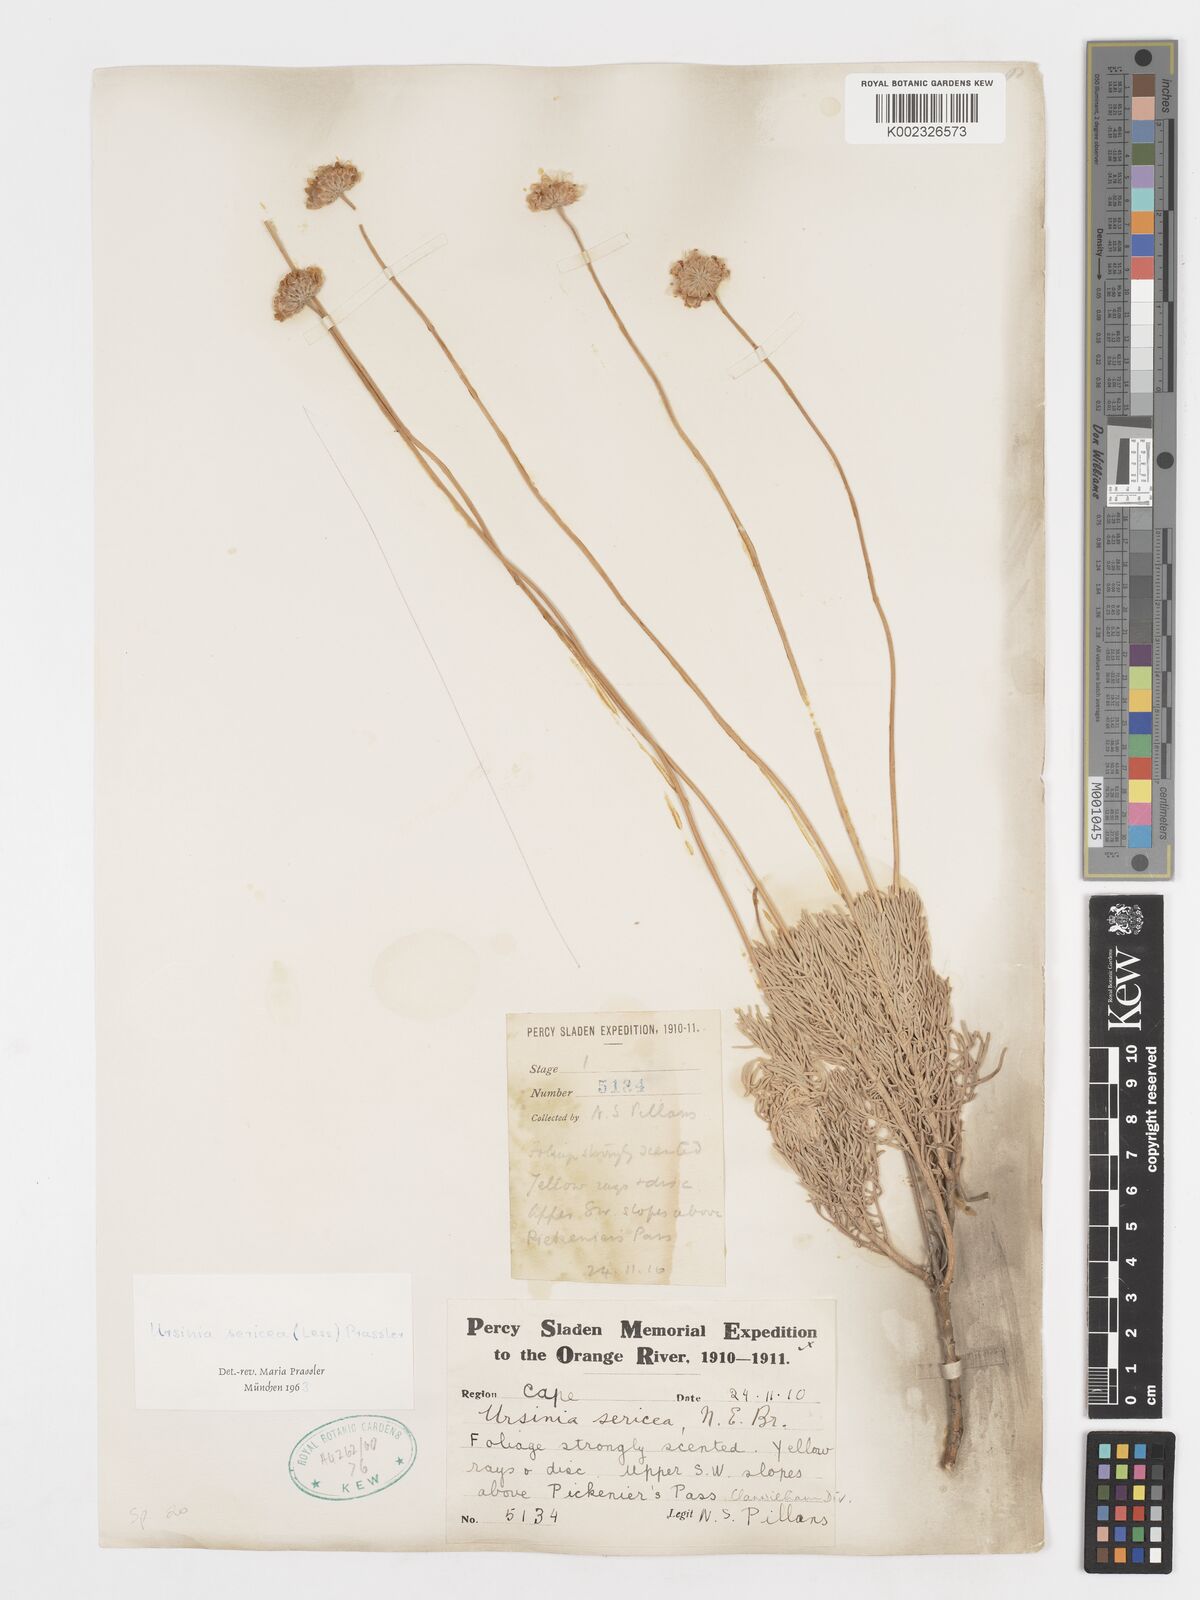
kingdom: Plantae
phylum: Tracheophyta
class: Magnoliopsida
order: Asterales
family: Asteraceae
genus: Ursinia
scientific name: Ursinia sericea
